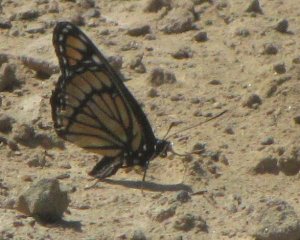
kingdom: Animalia
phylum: Arthropoda
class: Insecta
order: Lepidoptera
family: Nymphalidae
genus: Limenitis
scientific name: Limenitis archippus
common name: Viceroy
